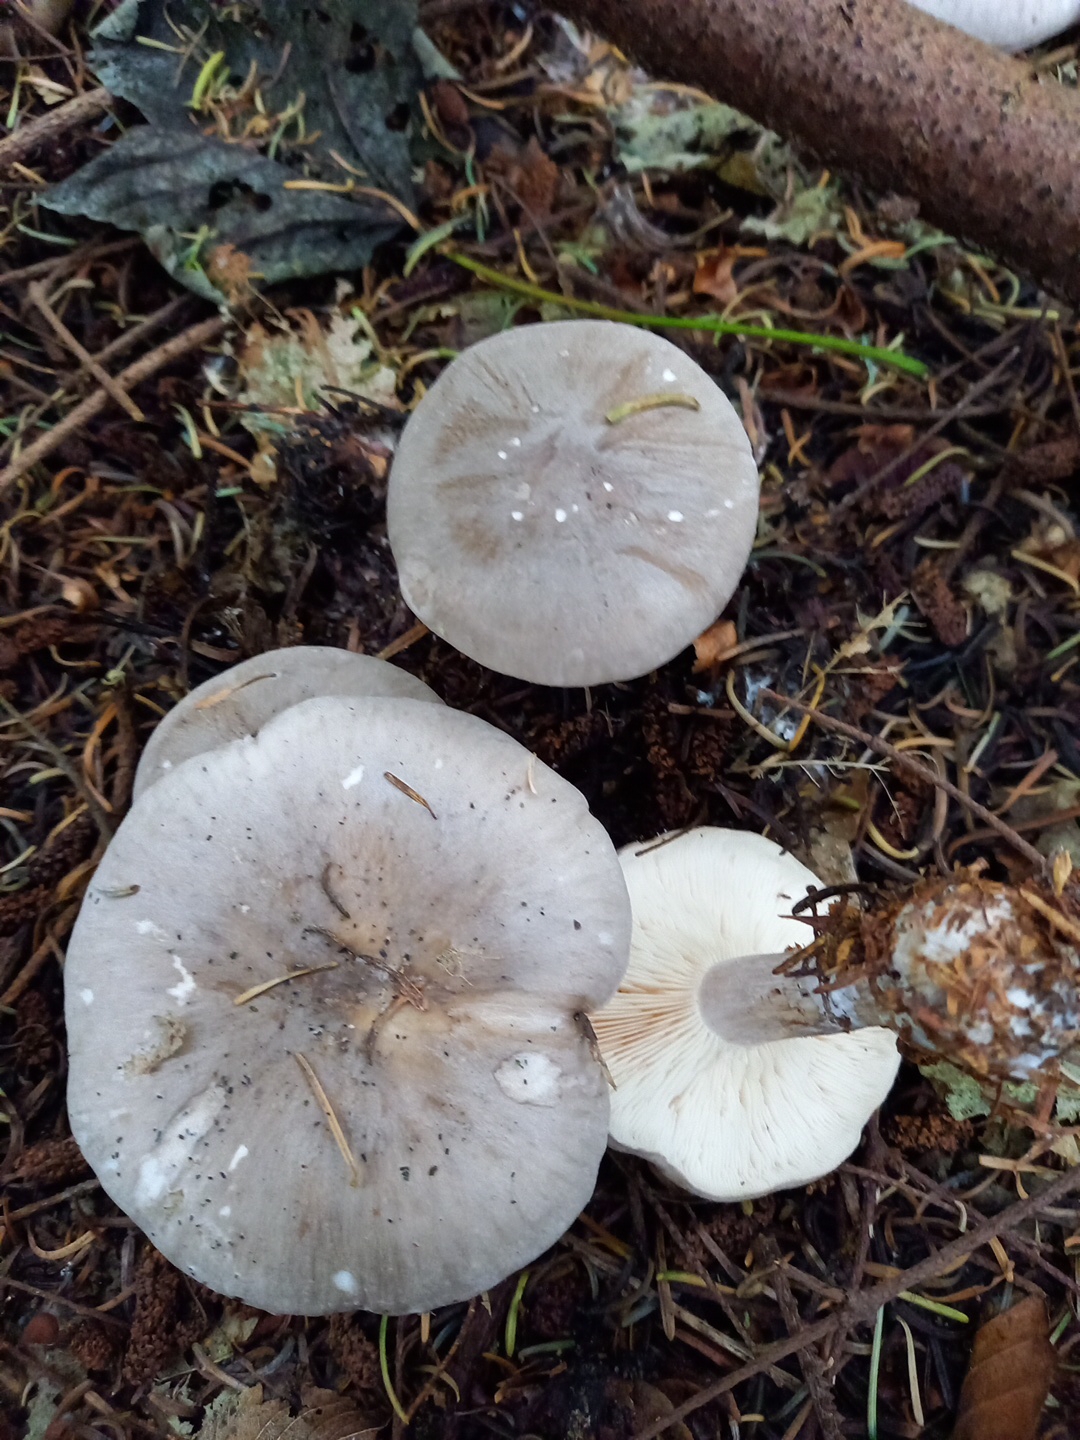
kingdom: Fungi
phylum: Basidiomycota
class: Agaricomycetes
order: Agaricales
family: Tricholomataceae
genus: Clitocybe
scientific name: Clitocybe nebularis
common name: tåge-tragthat
